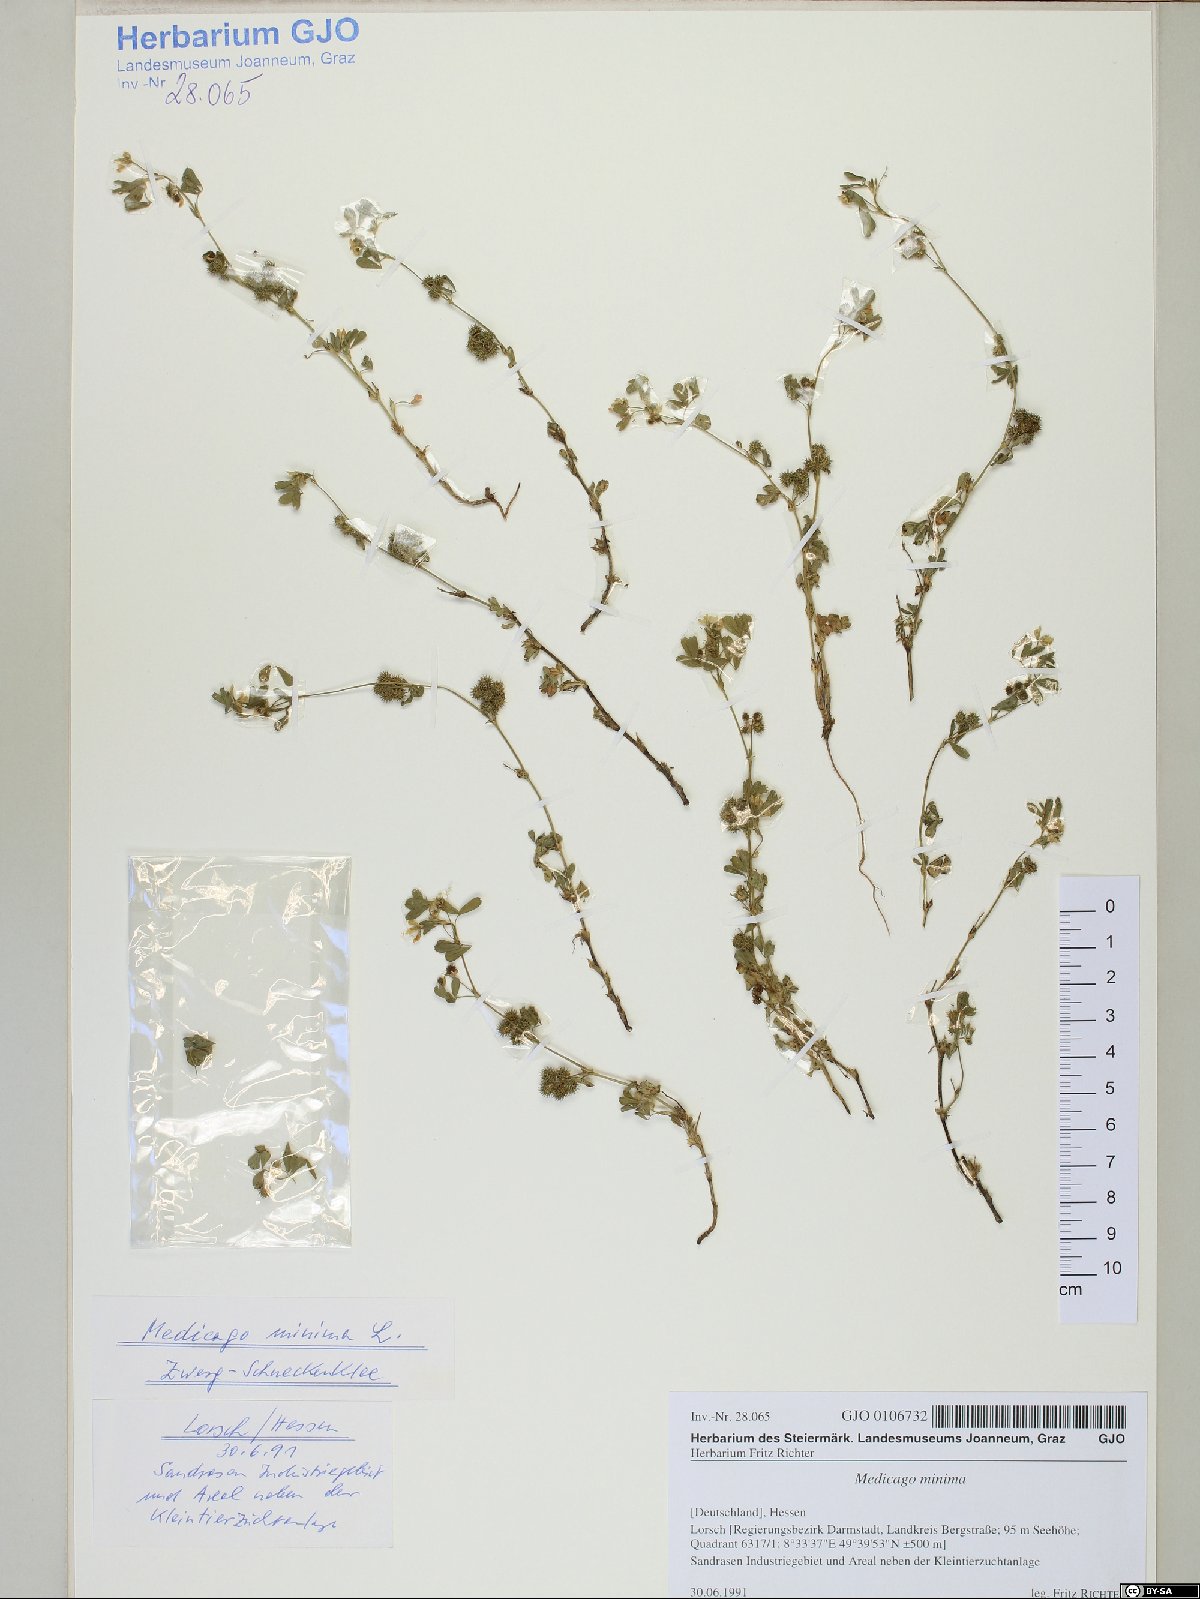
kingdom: Plantae
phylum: Tracheophyta
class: Magnoliopsida
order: Fabales
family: Fabaceae
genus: Medicago
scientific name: Medicago minima
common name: Little bur-clover
